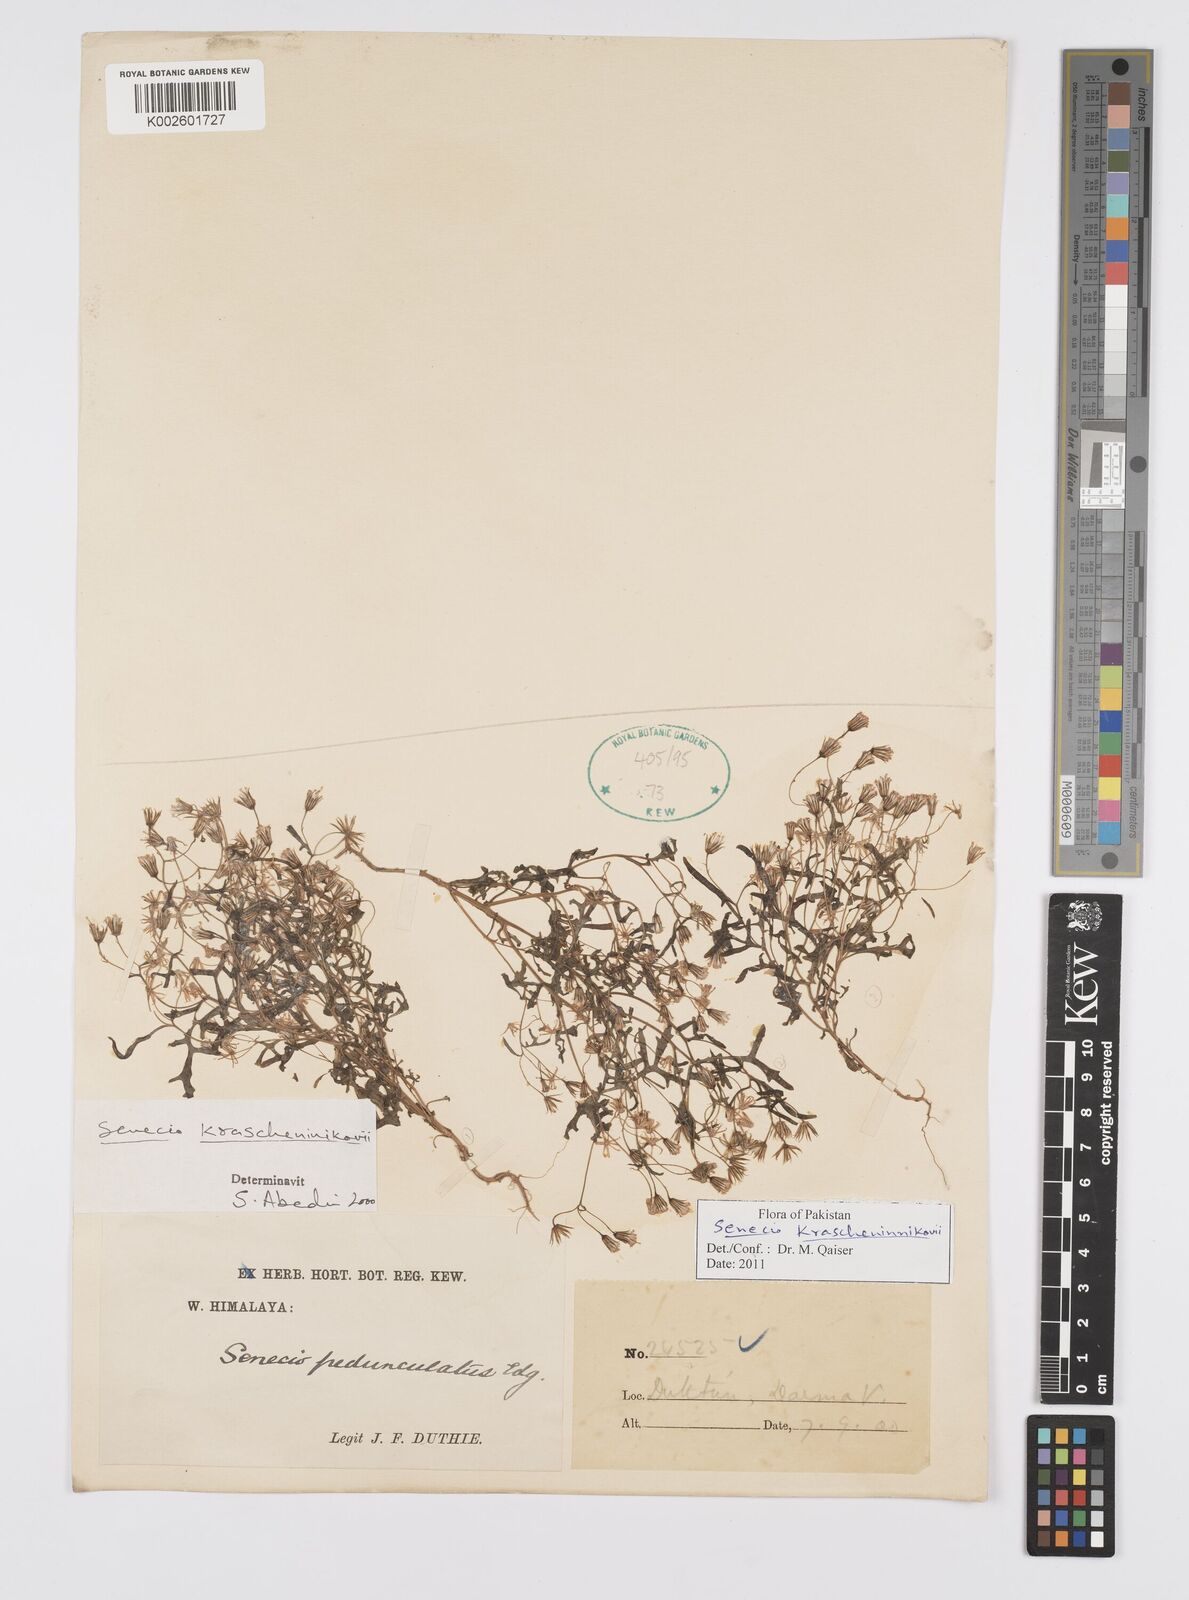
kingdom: Plantae
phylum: Tracheophyta
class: Magnoliopsida
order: Asterales
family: Asteraceae
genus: Senecio
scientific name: Senecio krascheninnikovii
